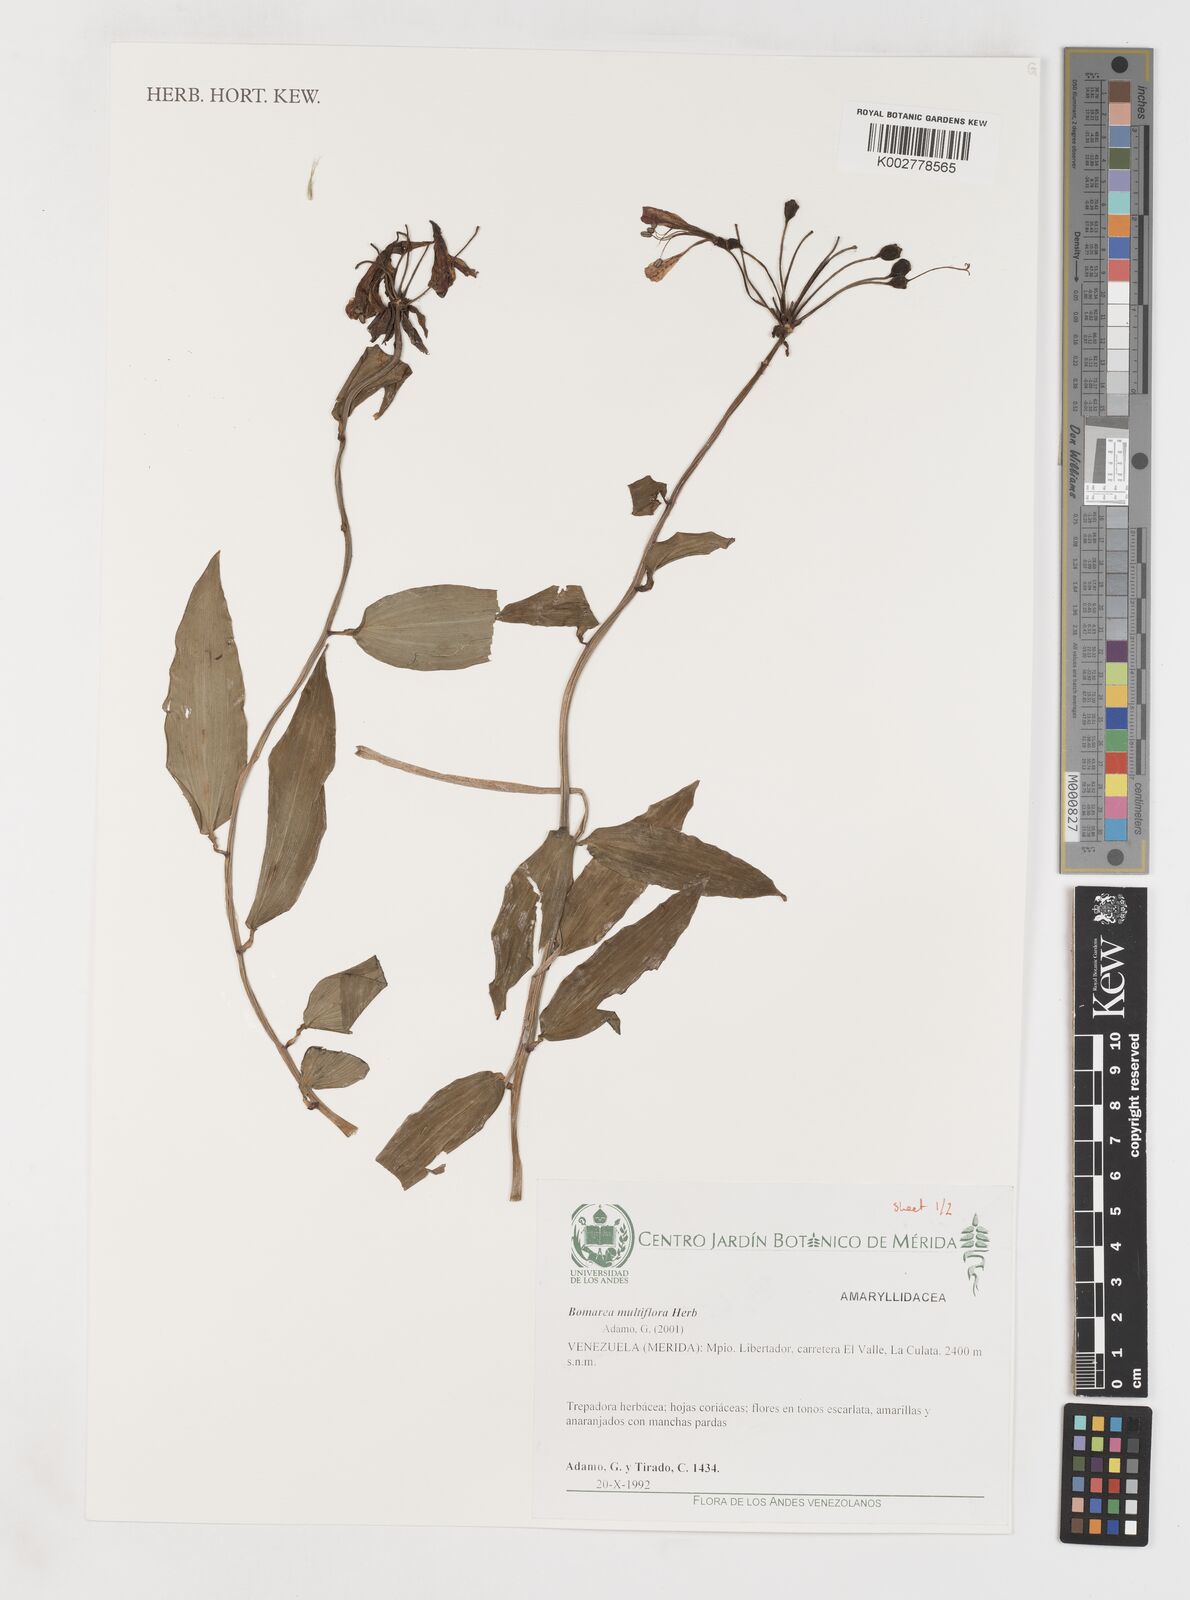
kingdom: Plantae
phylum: Tracheophyta
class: Liliopsida
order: Liliales
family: Alstroemeriaceae
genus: Bomarea
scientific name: Bomarea multiflora
